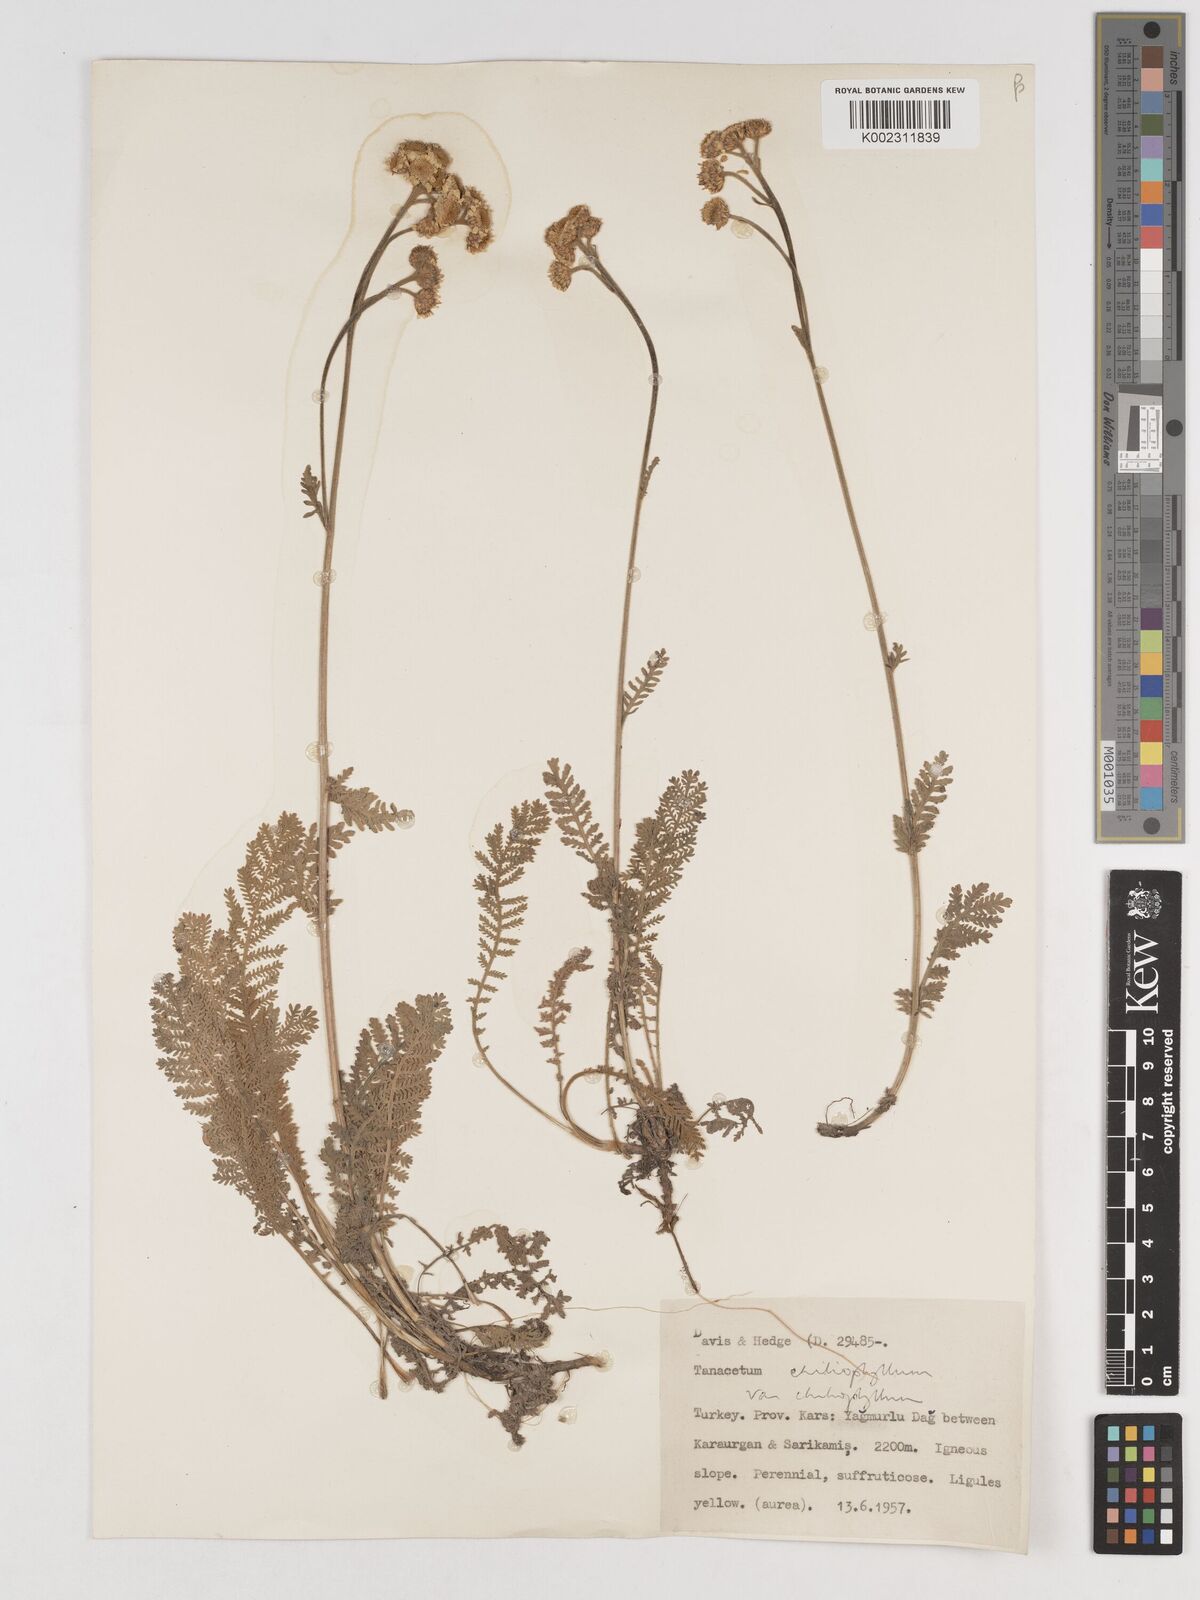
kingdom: Plantae
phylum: Tracheophyta
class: Magnoliopsida
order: Asterales
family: Asteraceae
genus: Tanacetum
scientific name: Tanacetum aureum
